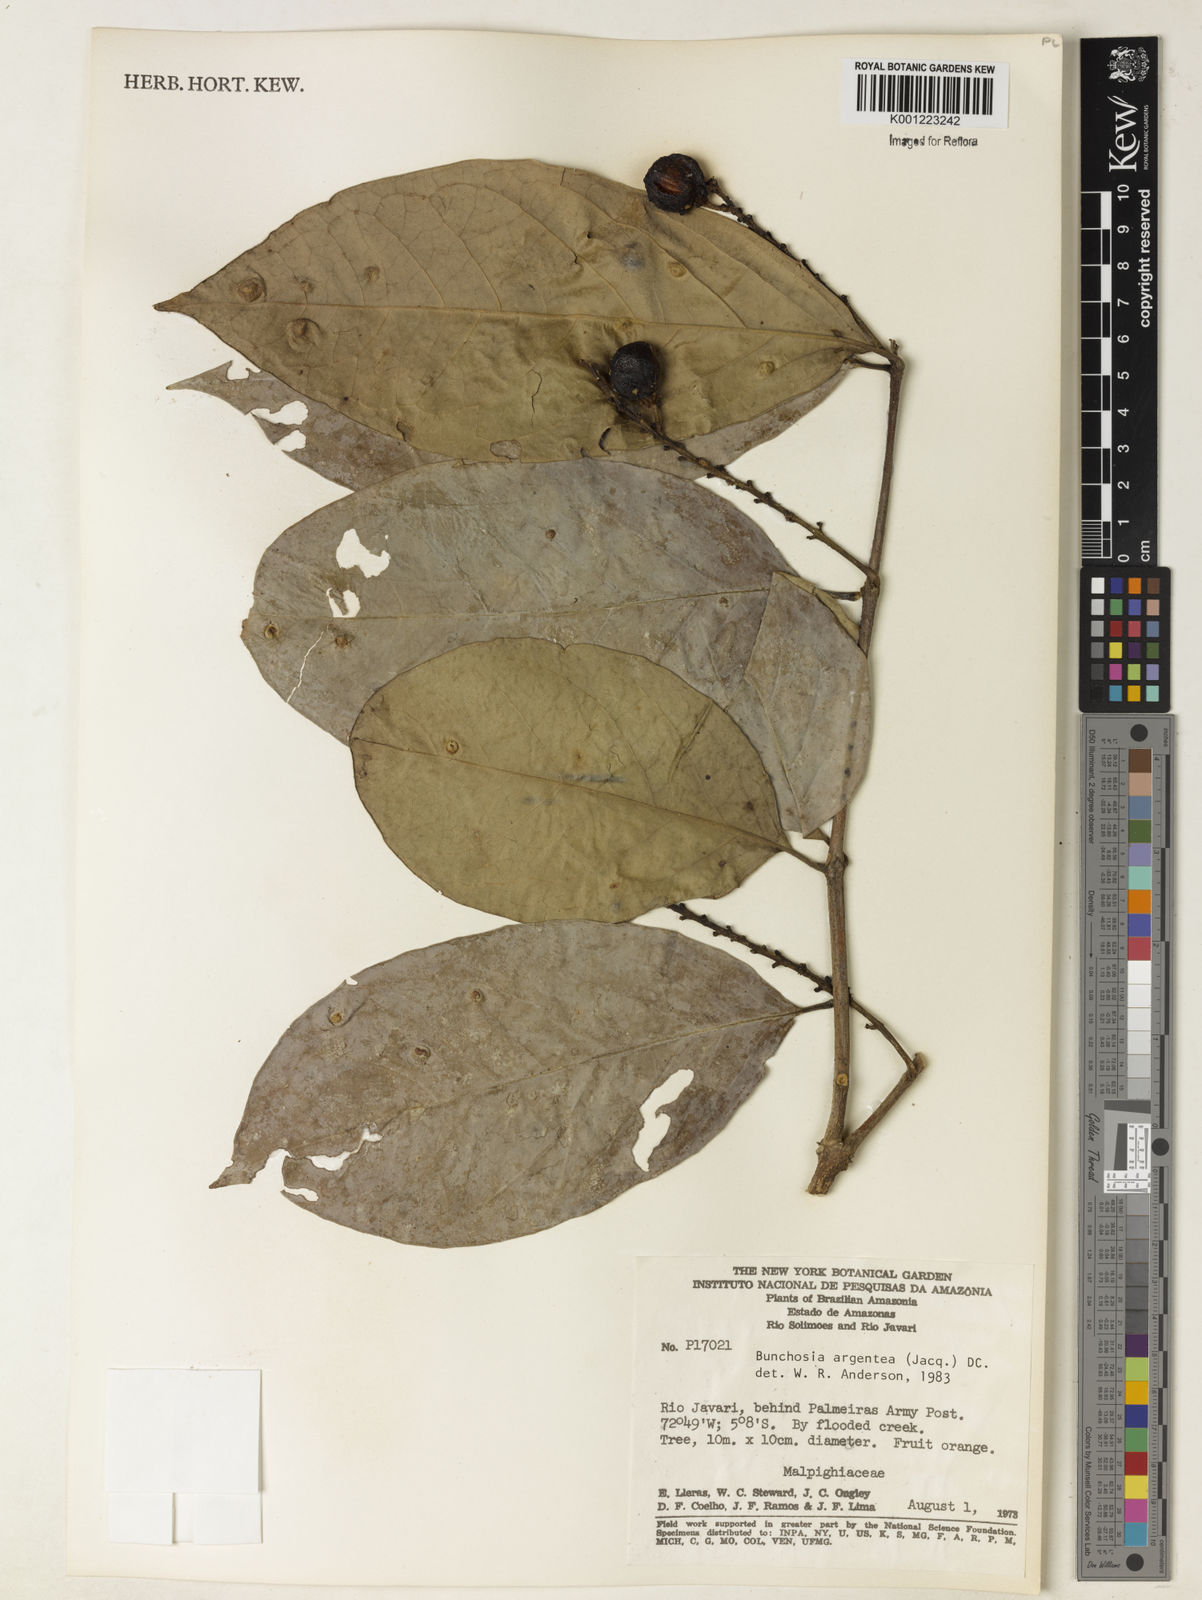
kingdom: Plantae
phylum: Tracheophyta
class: Magnoliopsida
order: Malpighiales
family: Malpighiaceae
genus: Bunchosia
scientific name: Bunchosia argentea
